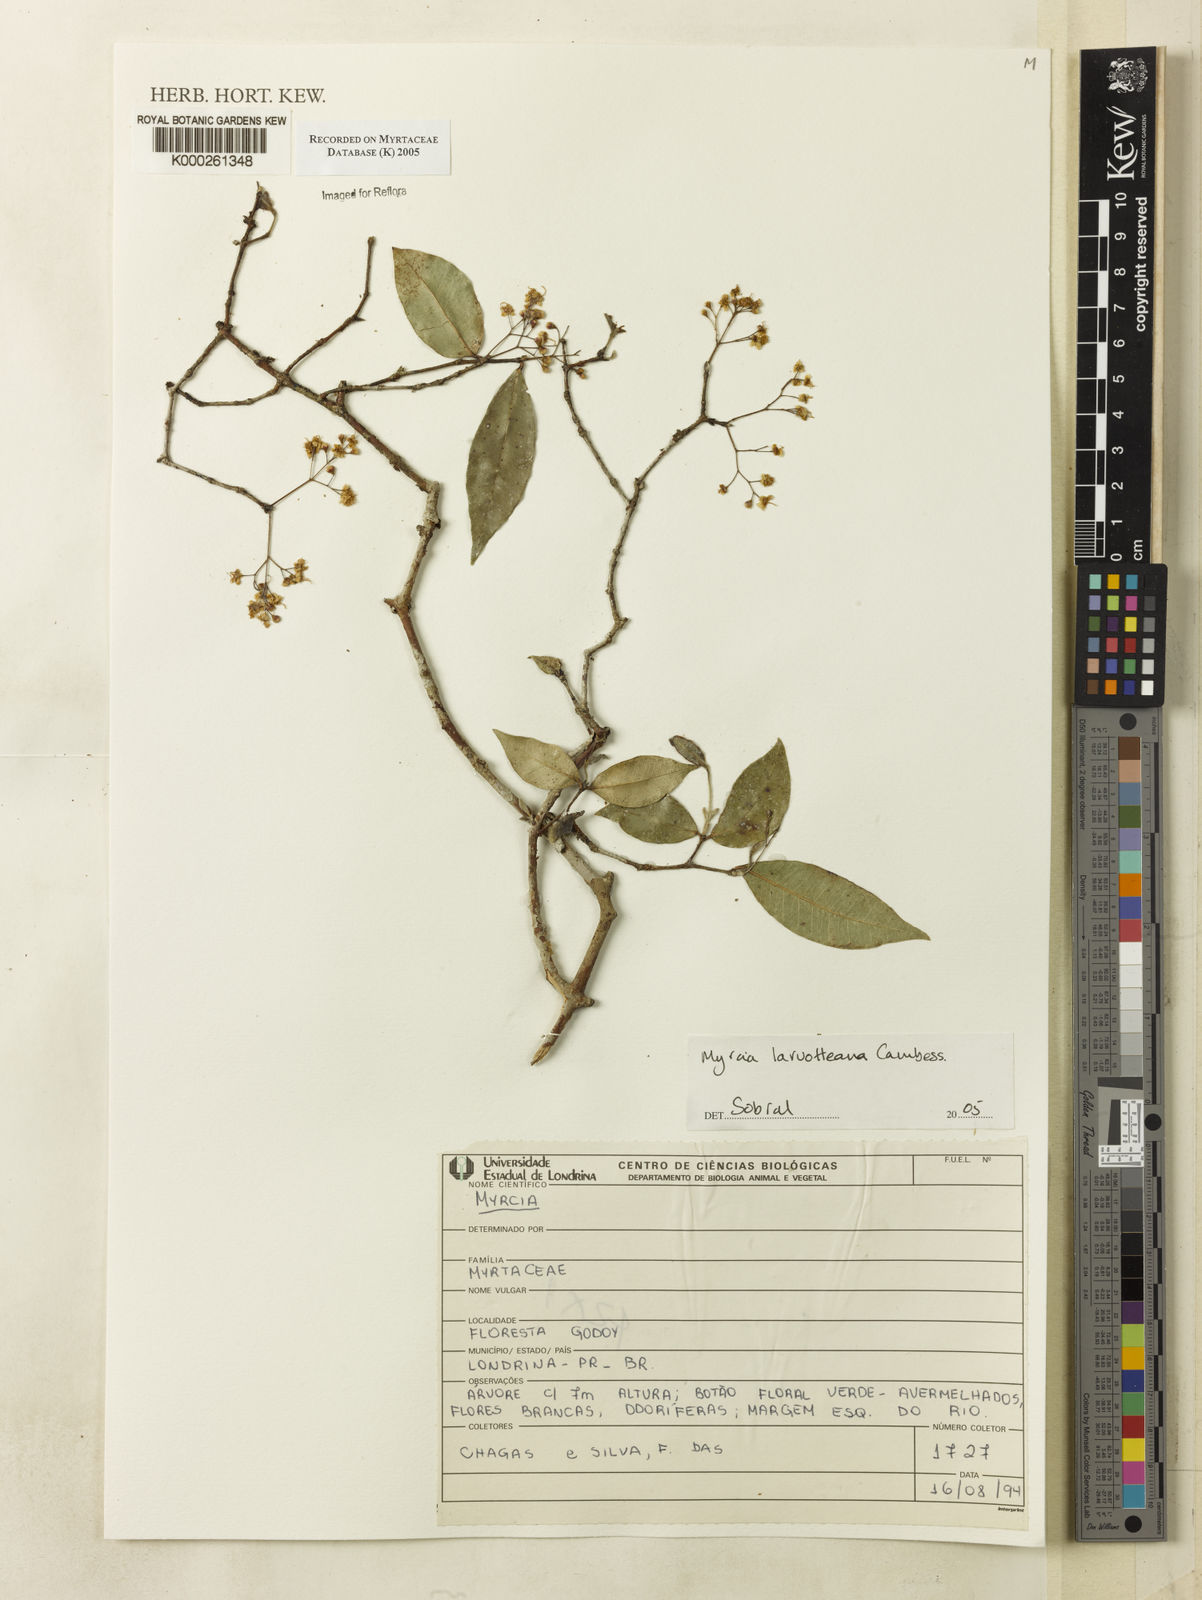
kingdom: Plantae
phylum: Tracheophyta
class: Magnoliopsida
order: Myrtales
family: Myrtaceae
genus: Myrcia
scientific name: Myrcia laruotteana
